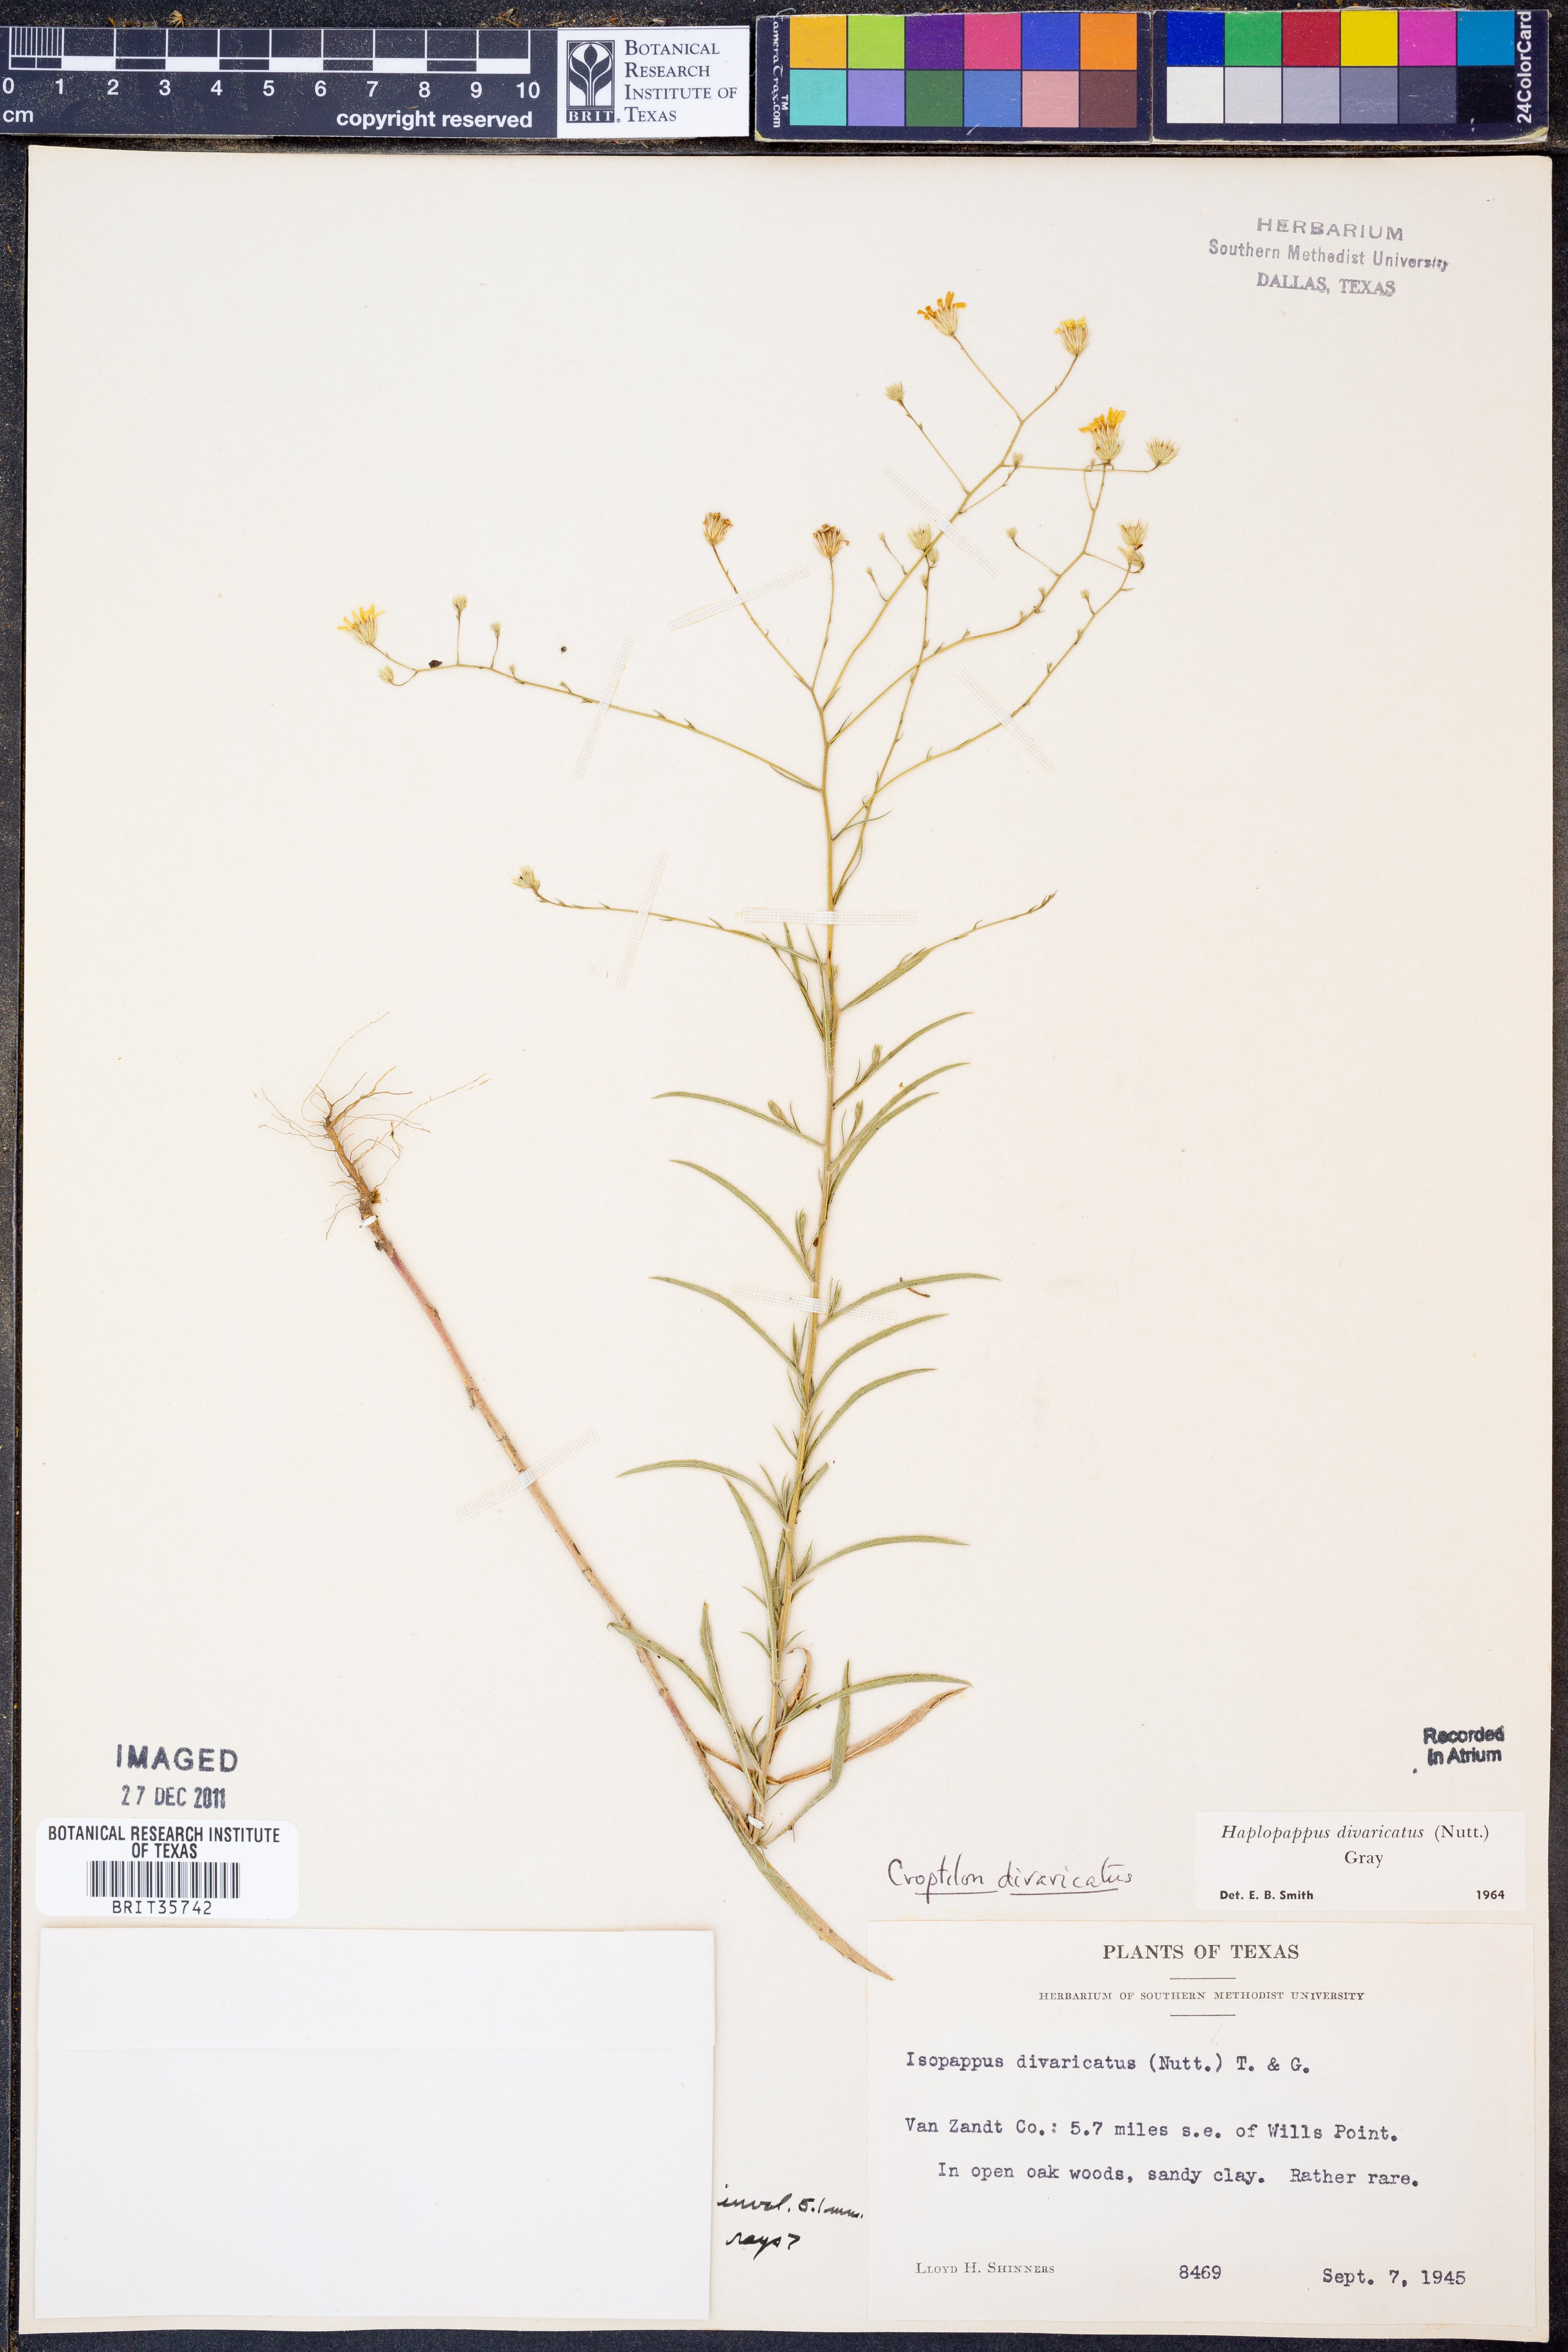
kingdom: Plantae
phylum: Tracheophyta
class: Magnoliopsida
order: Asterales
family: Asteraceae
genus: Croptilon
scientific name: Croptilon divaricatum
